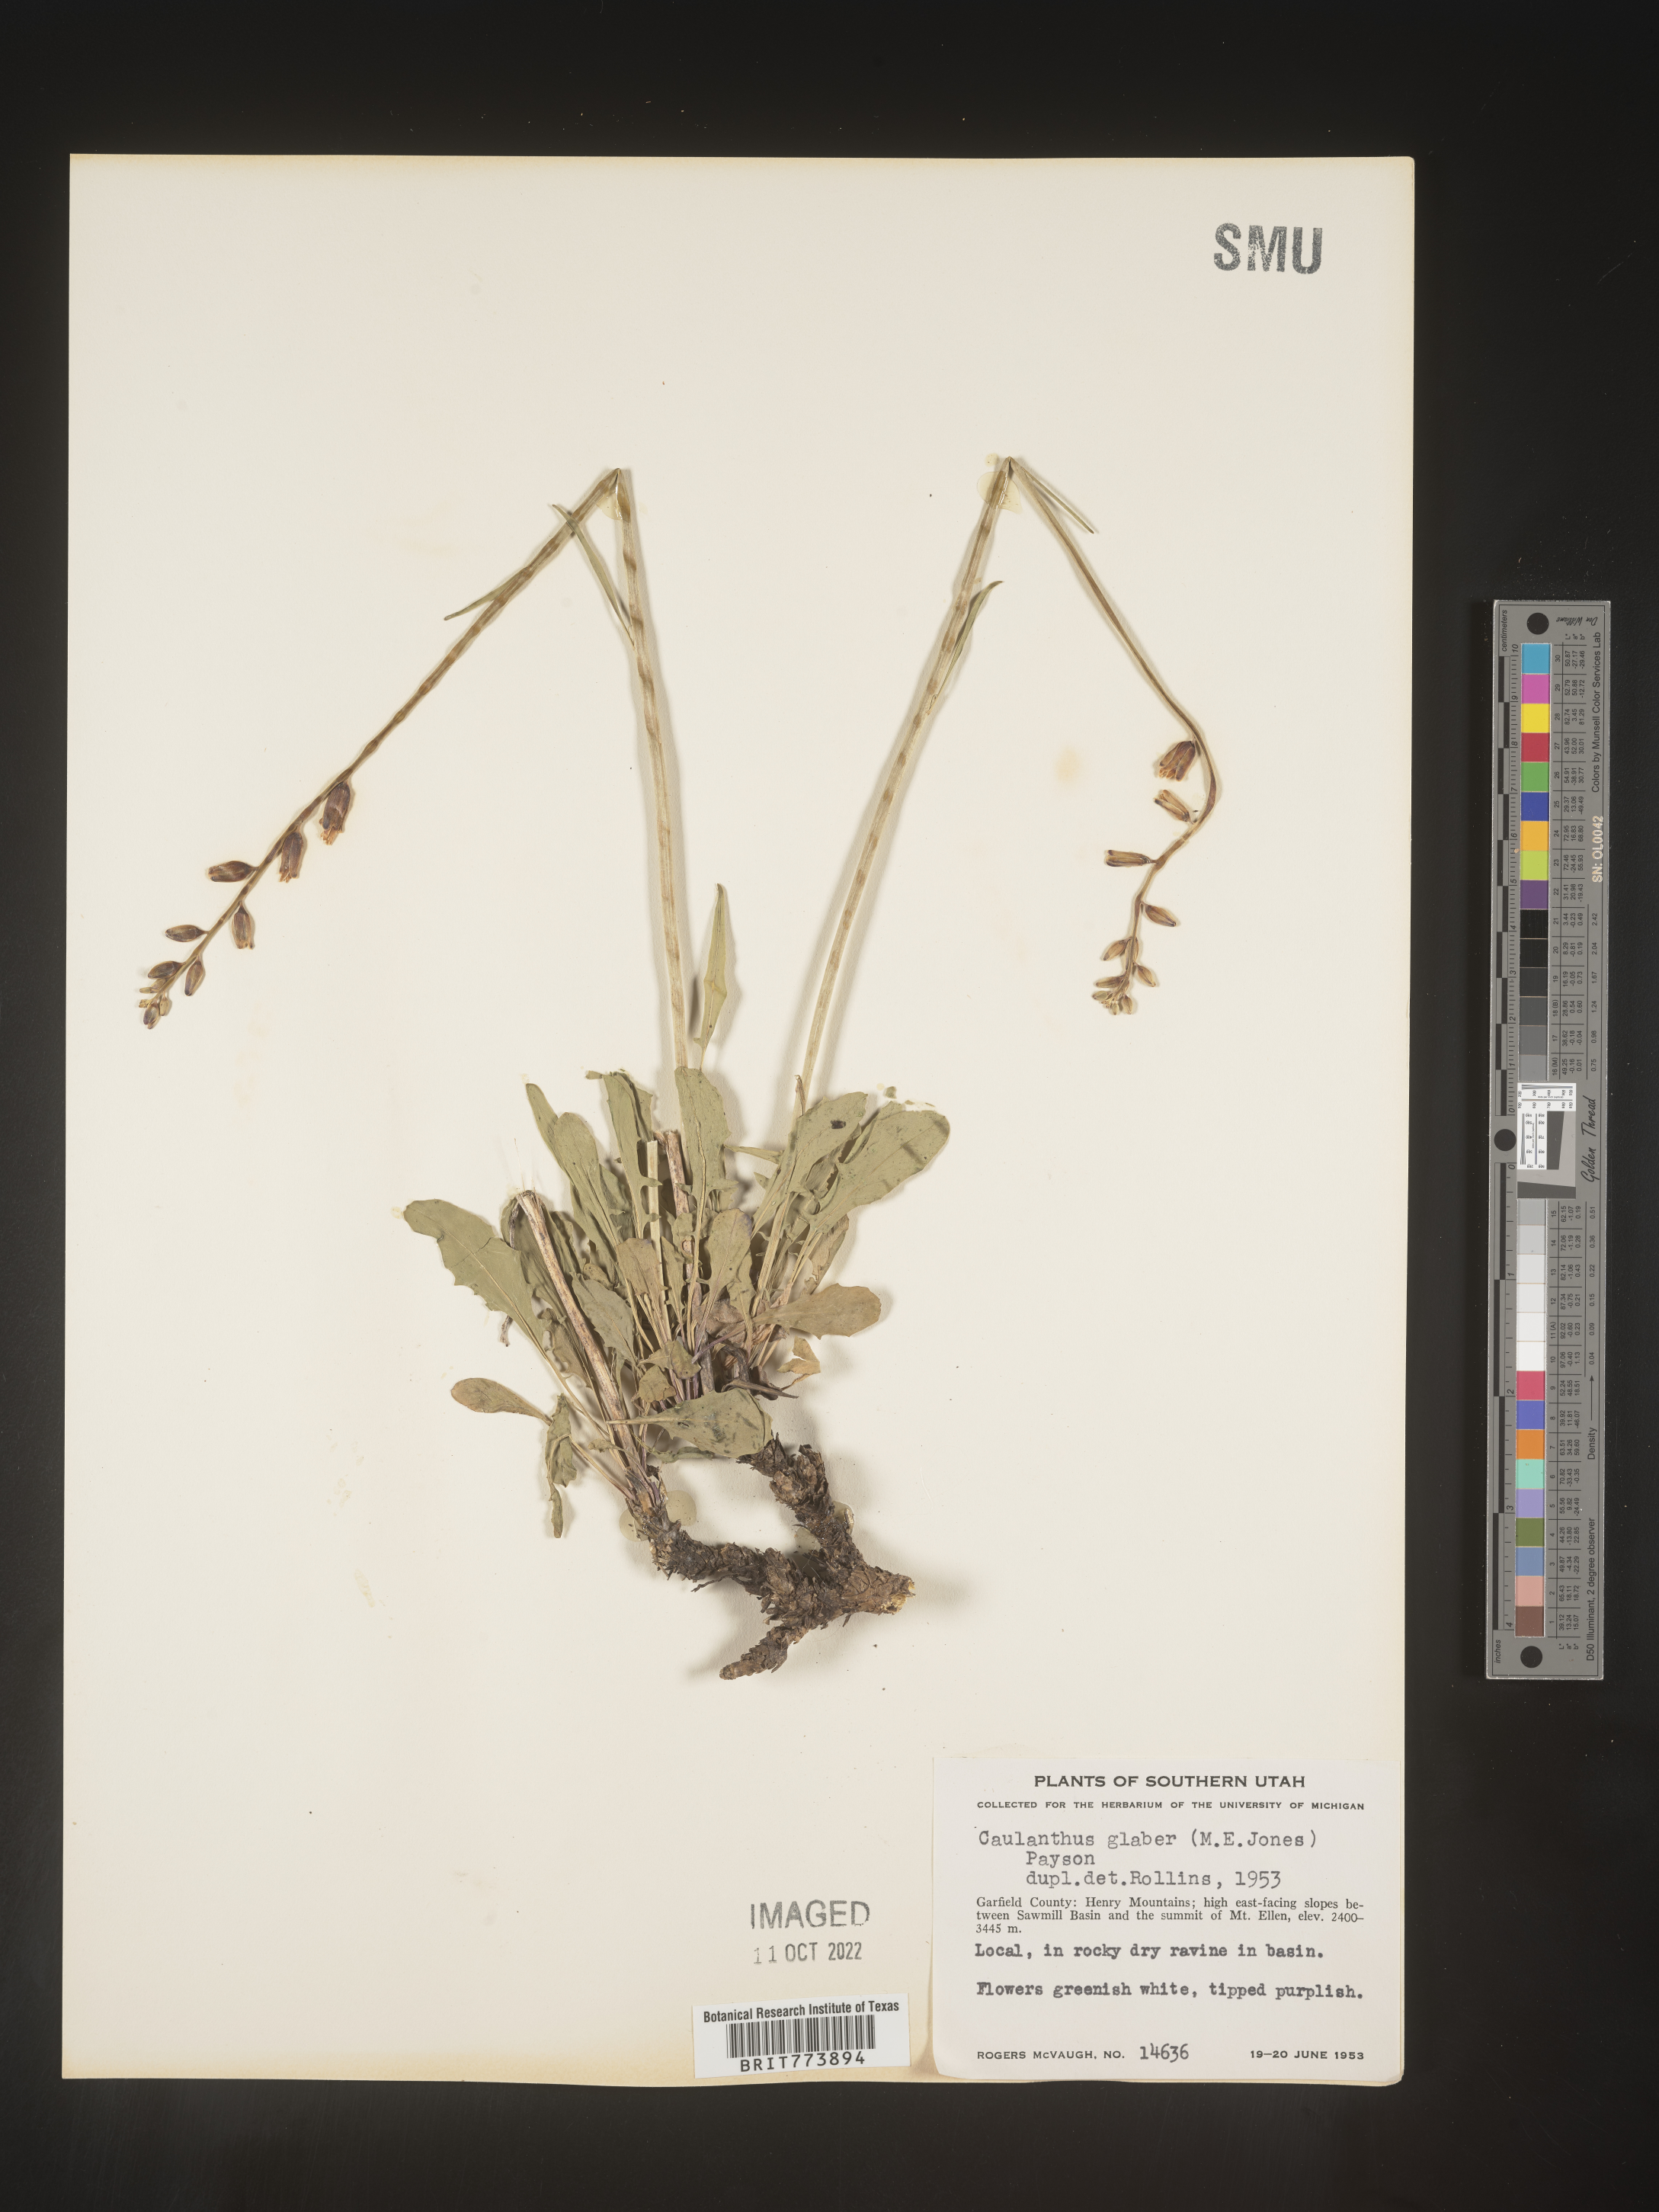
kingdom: Plantae
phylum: Tracheophyta
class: Magnoliopsida
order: Brassicales
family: Brassicaceae
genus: Streptanthus
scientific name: Streptanthus
